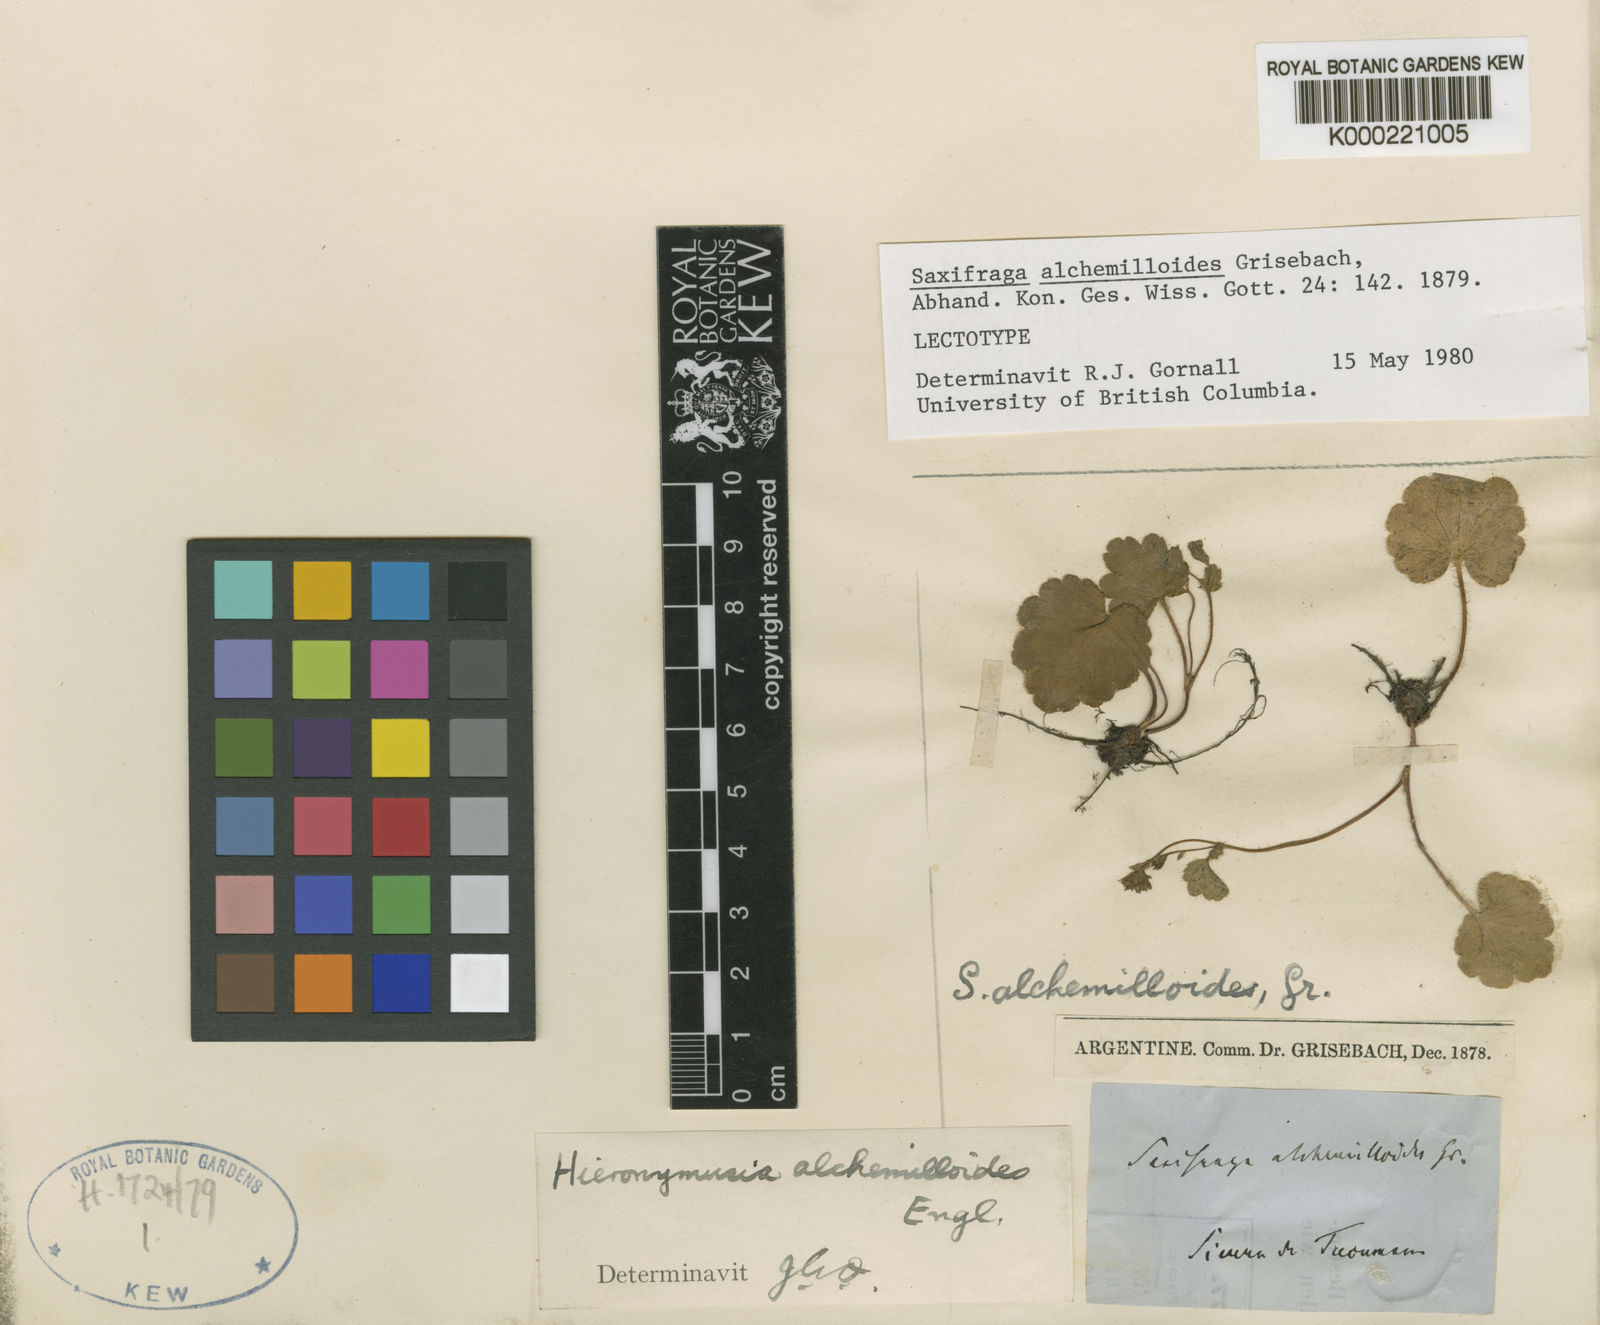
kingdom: Plantae
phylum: Tracheophyta
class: Magnoliopsida
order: Saxifragales
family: Saxifragaceae
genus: Hieronymusia
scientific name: Hieronymusia alchemilloides
